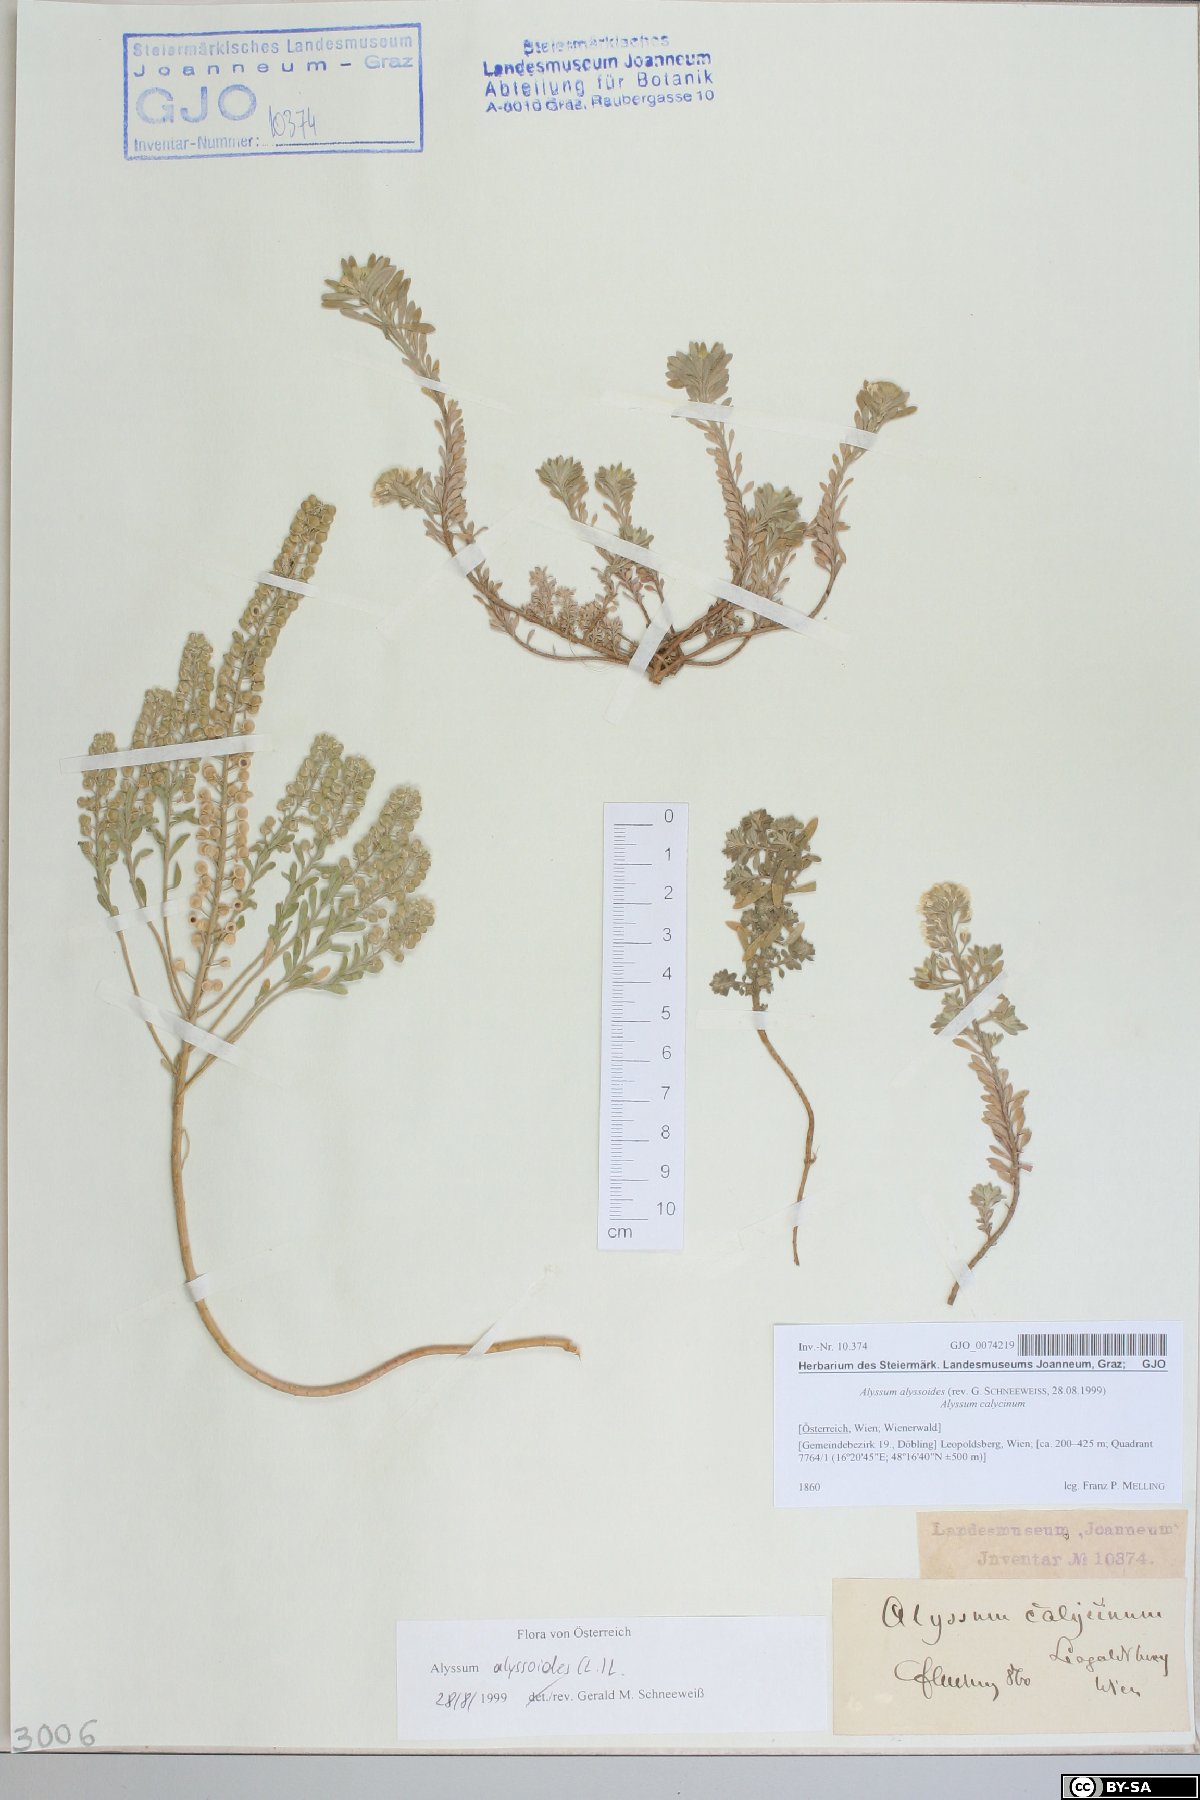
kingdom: Plantae
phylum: Tracheophyta
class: Magnoliopsida
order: Brassicales
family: Brassicaceae
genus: Alyssum
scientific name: Alyssum alyssoides
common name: Small alison
